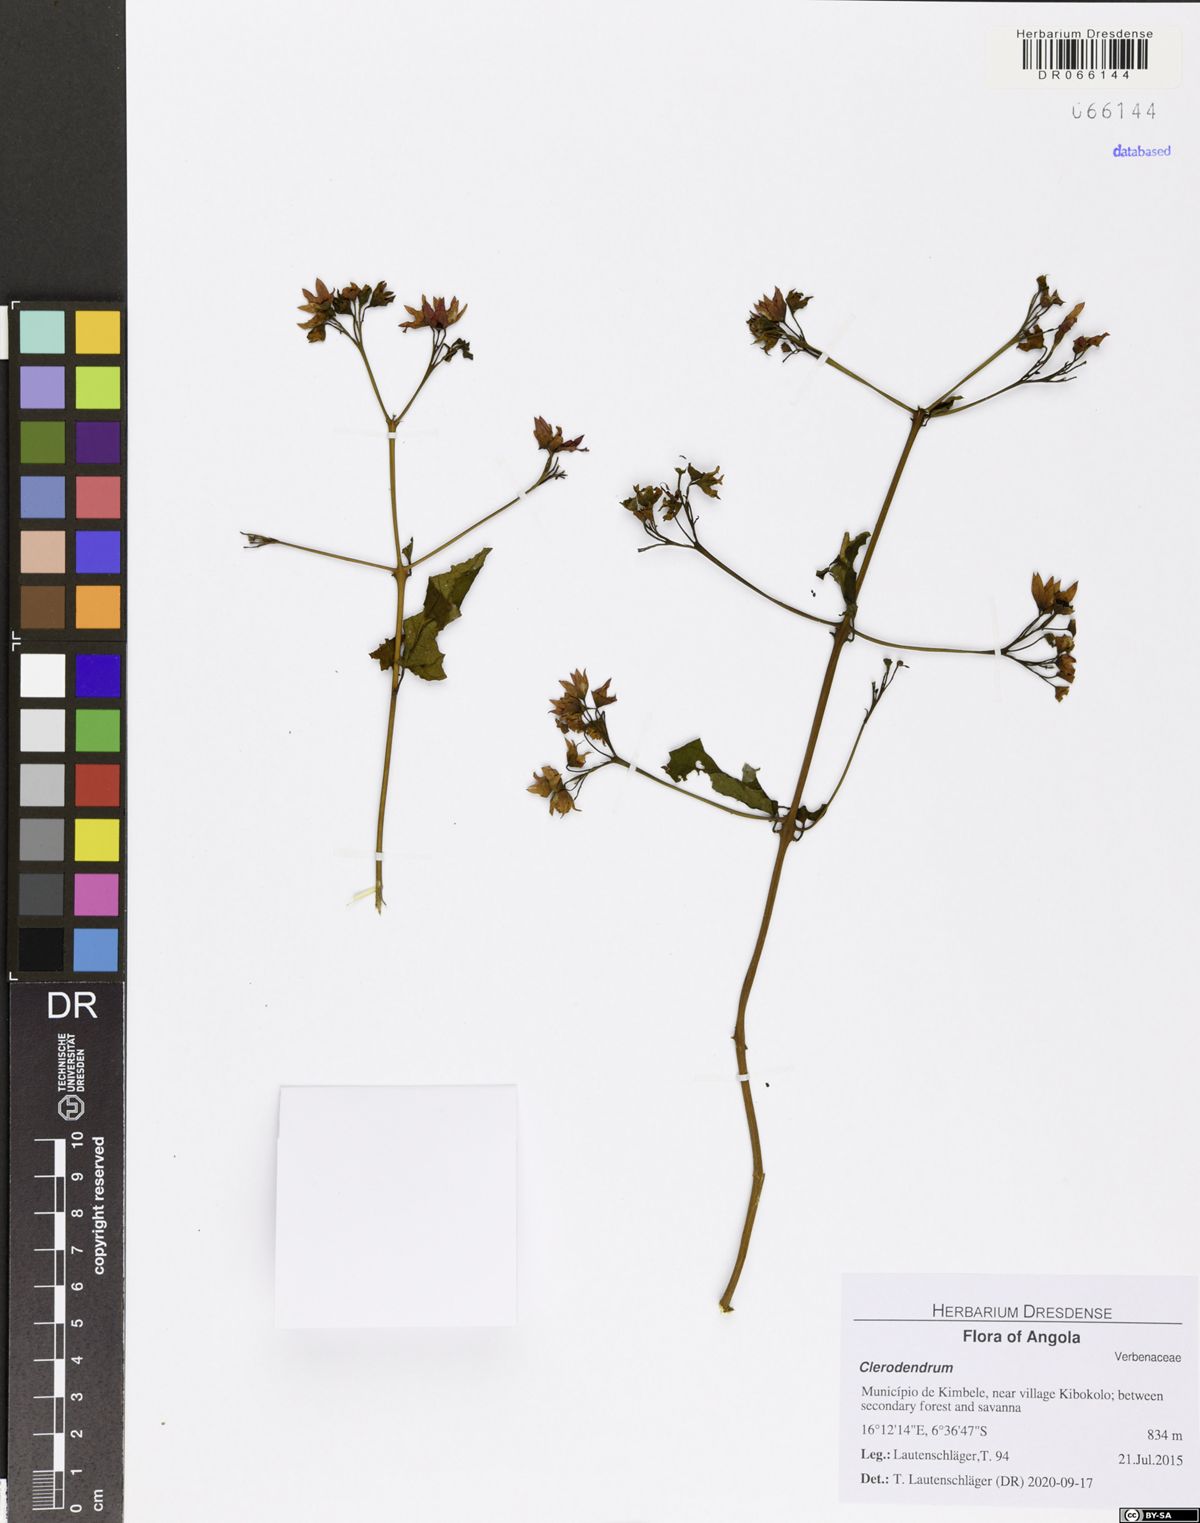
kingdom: Plantae
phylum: Tracheophyta
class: Magnoliopsida
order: Lamiales
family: Lamiaceae
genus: Clerodendrum
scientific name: Clerodendrum splendens
